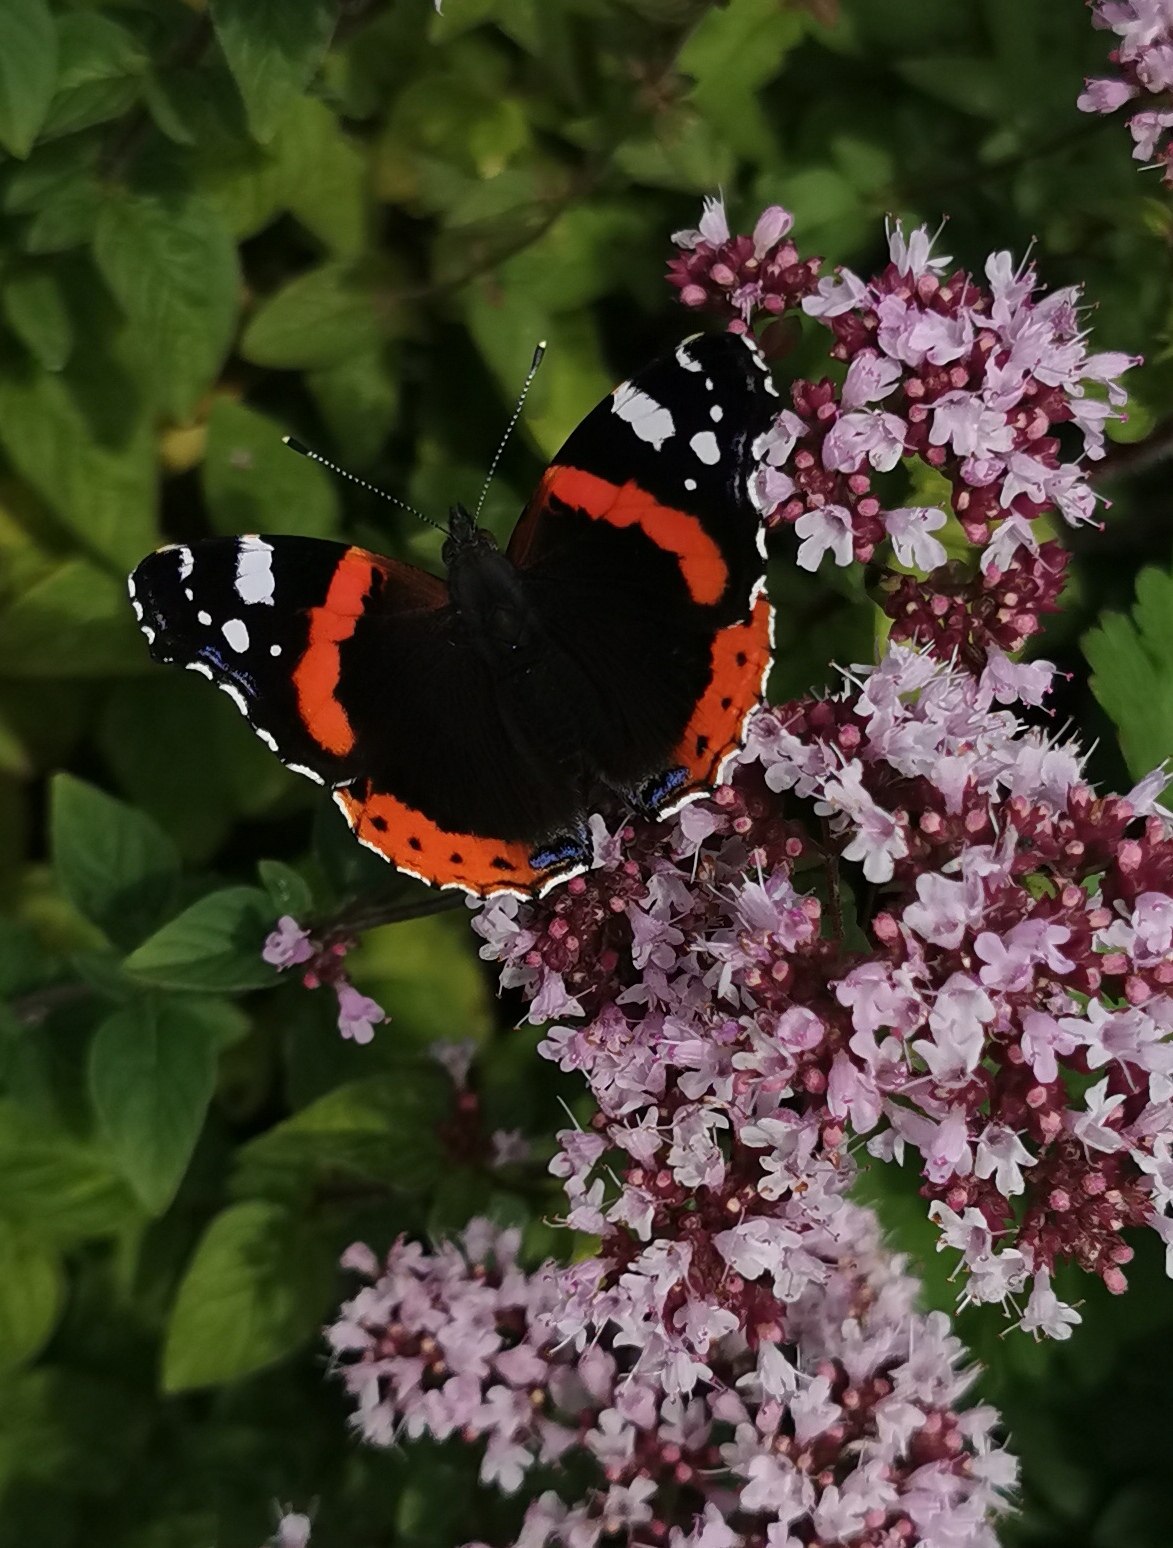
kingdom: Animalia
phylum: Arthropoda
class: Insecta
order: Lepidoptera
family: Nymphalidae
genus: Vanessa
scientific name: Vanessa atalanta
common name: Admiral
